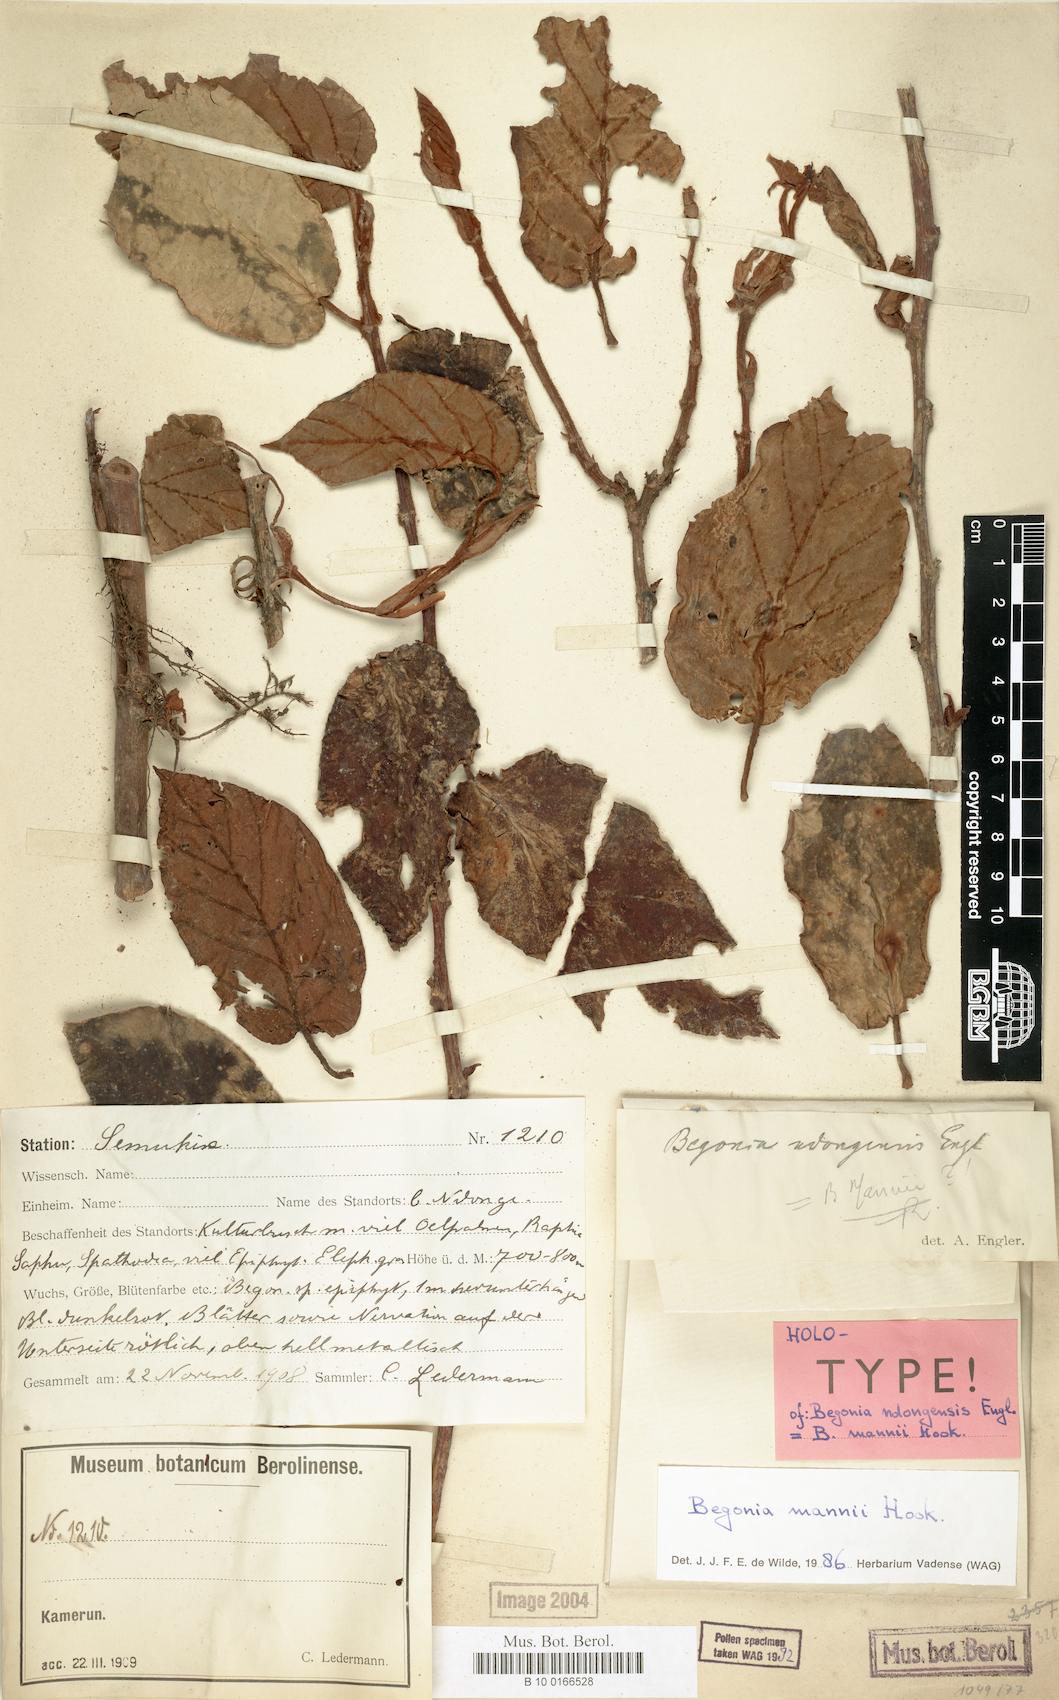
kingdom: Plantae
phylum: Tracheophyta
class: Magnoliopsida
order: Cucurbitales
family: Begoniaceae
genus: Begonia
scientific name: Begonia mannii
